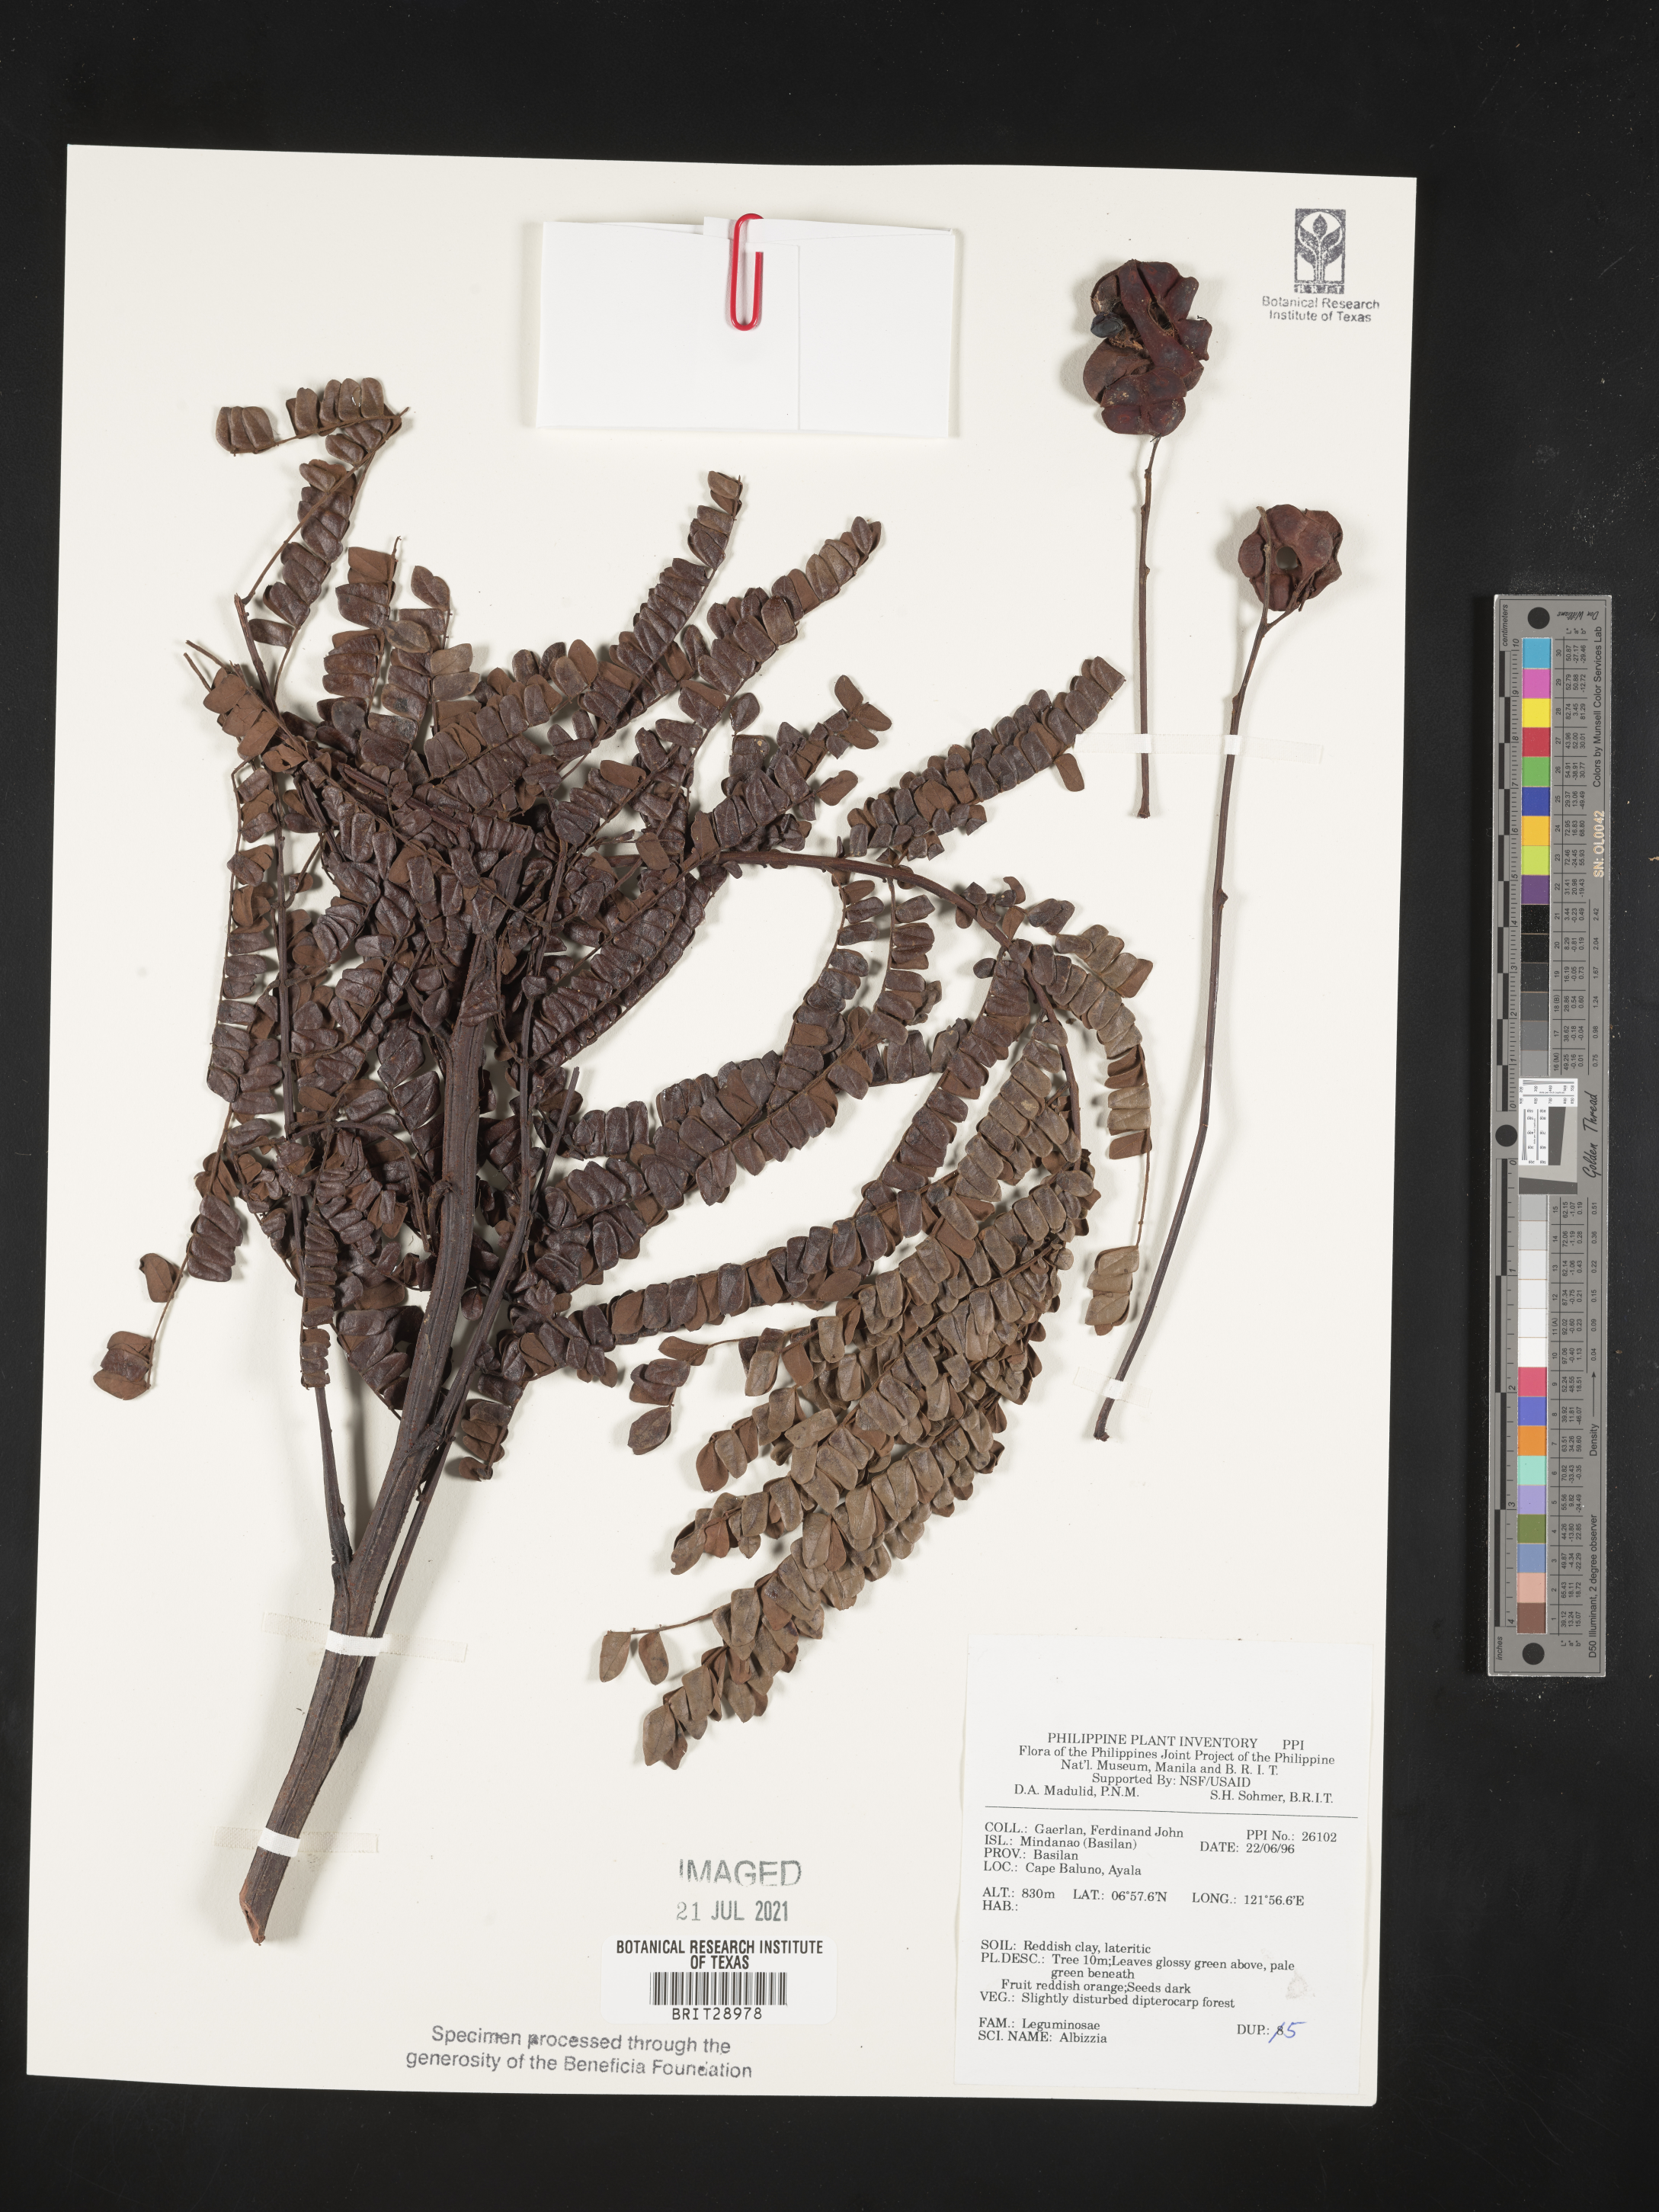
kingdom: Plantae
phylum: Tracheophyta
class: Magnoliopsida
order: Fabales
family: Fabaceae
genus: Albizia
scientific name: Albizia
